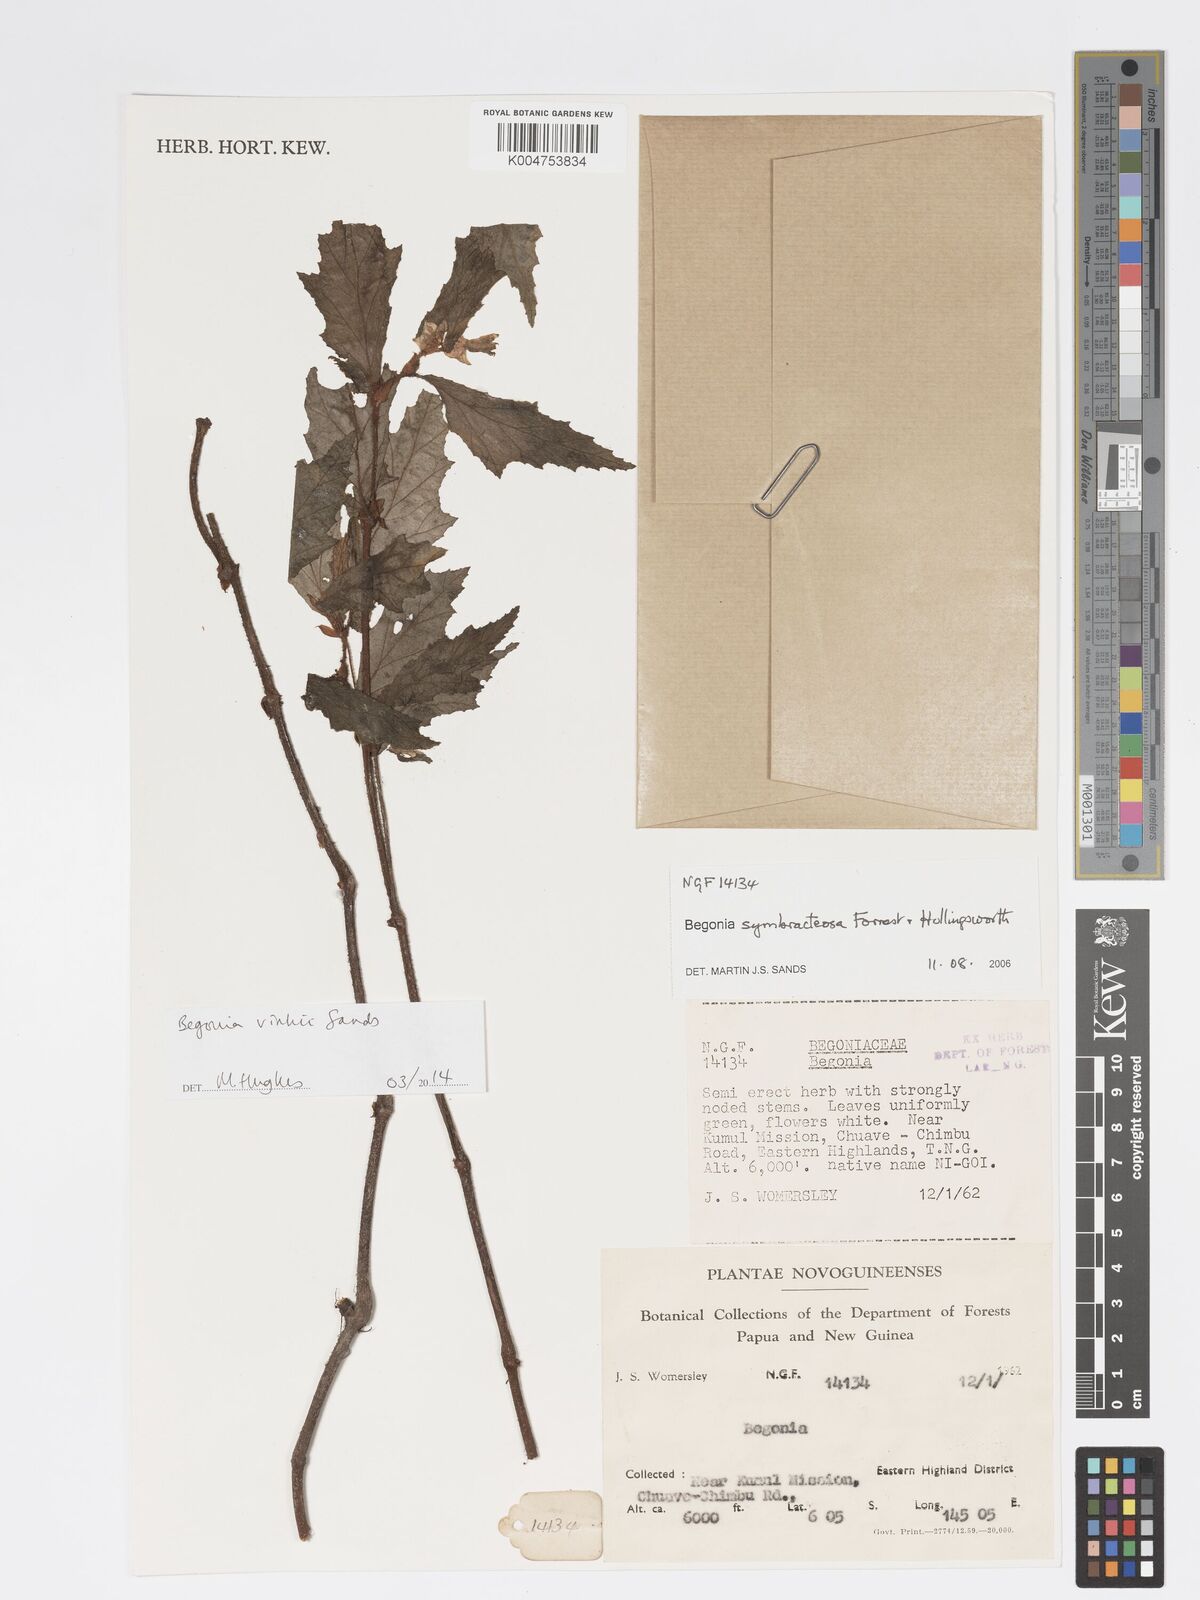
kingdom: Plantae
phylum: Tracheophyta
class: Magnoliopsida
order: Cucurbitales
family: Begoniaceae
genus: Begonia
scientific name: Begonia vinkii
